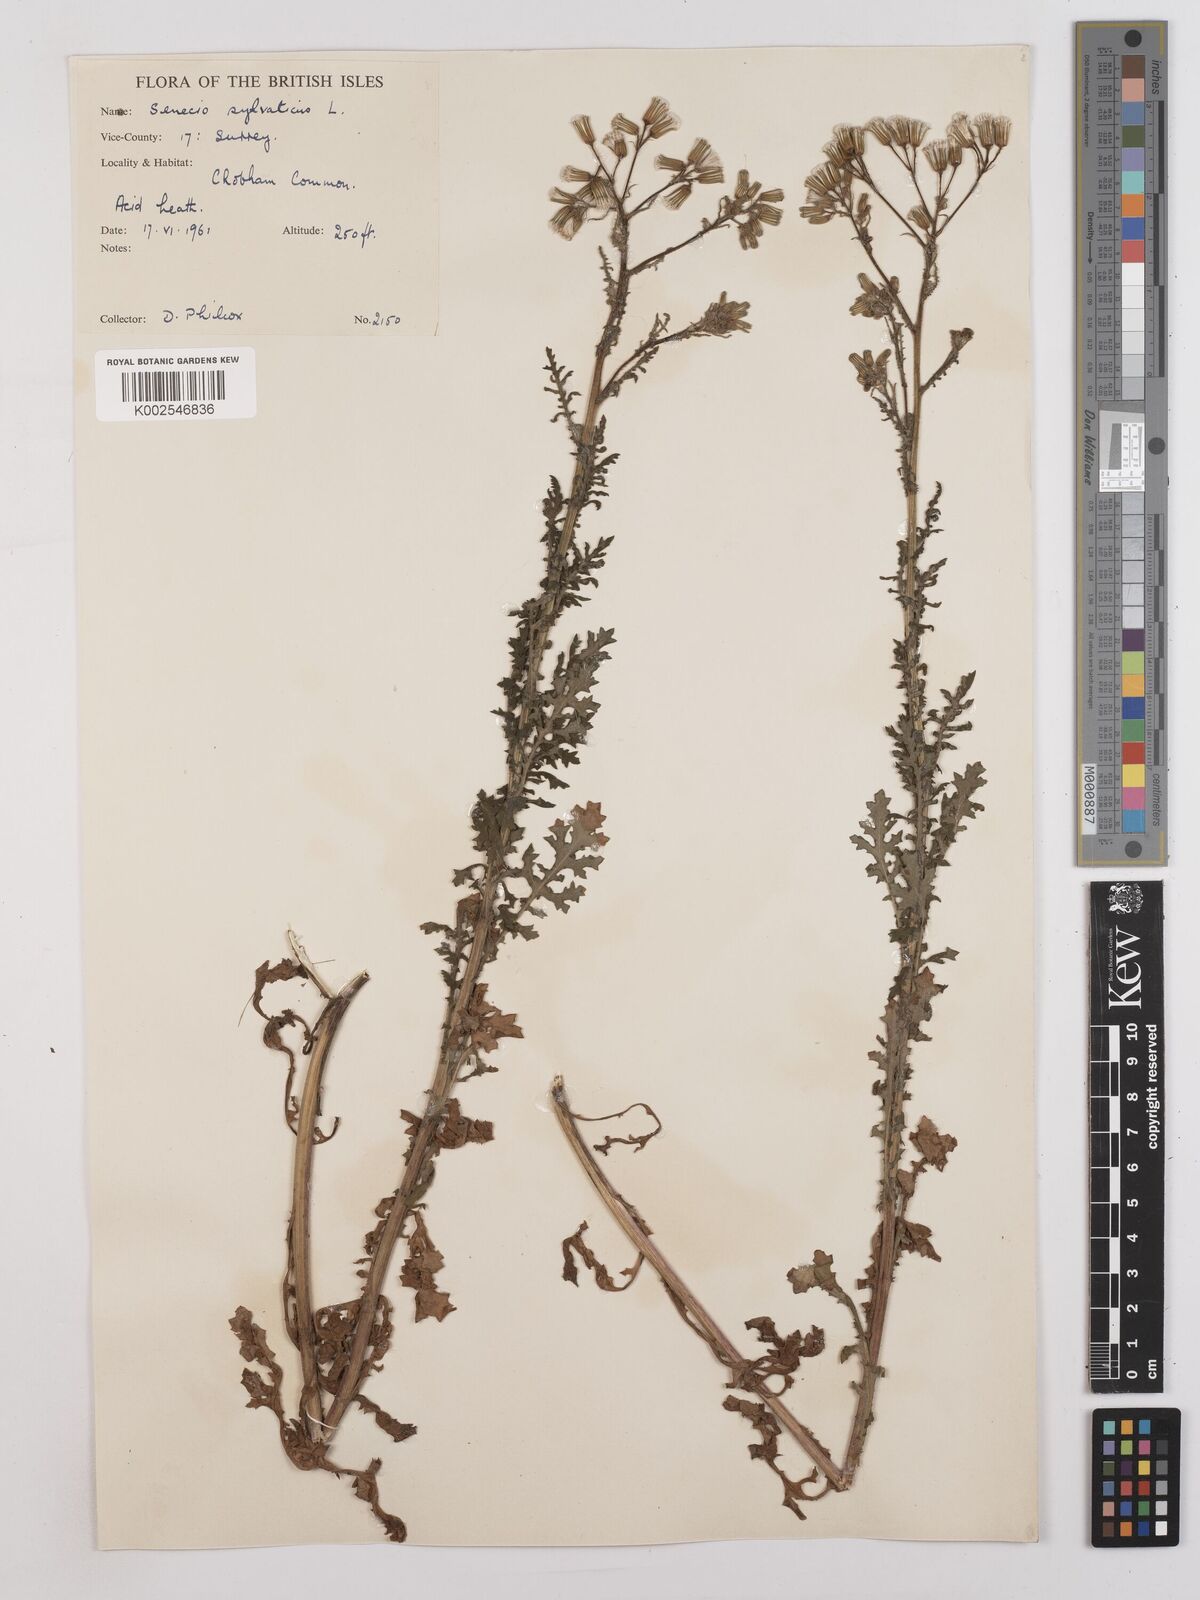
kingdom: Plantae
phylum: Tracheophyta
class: Magnoliopsida
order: Asterales
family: Asteraceae
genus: Senecio
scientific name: Senecio sylvaticus
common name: Woodland ragwort
